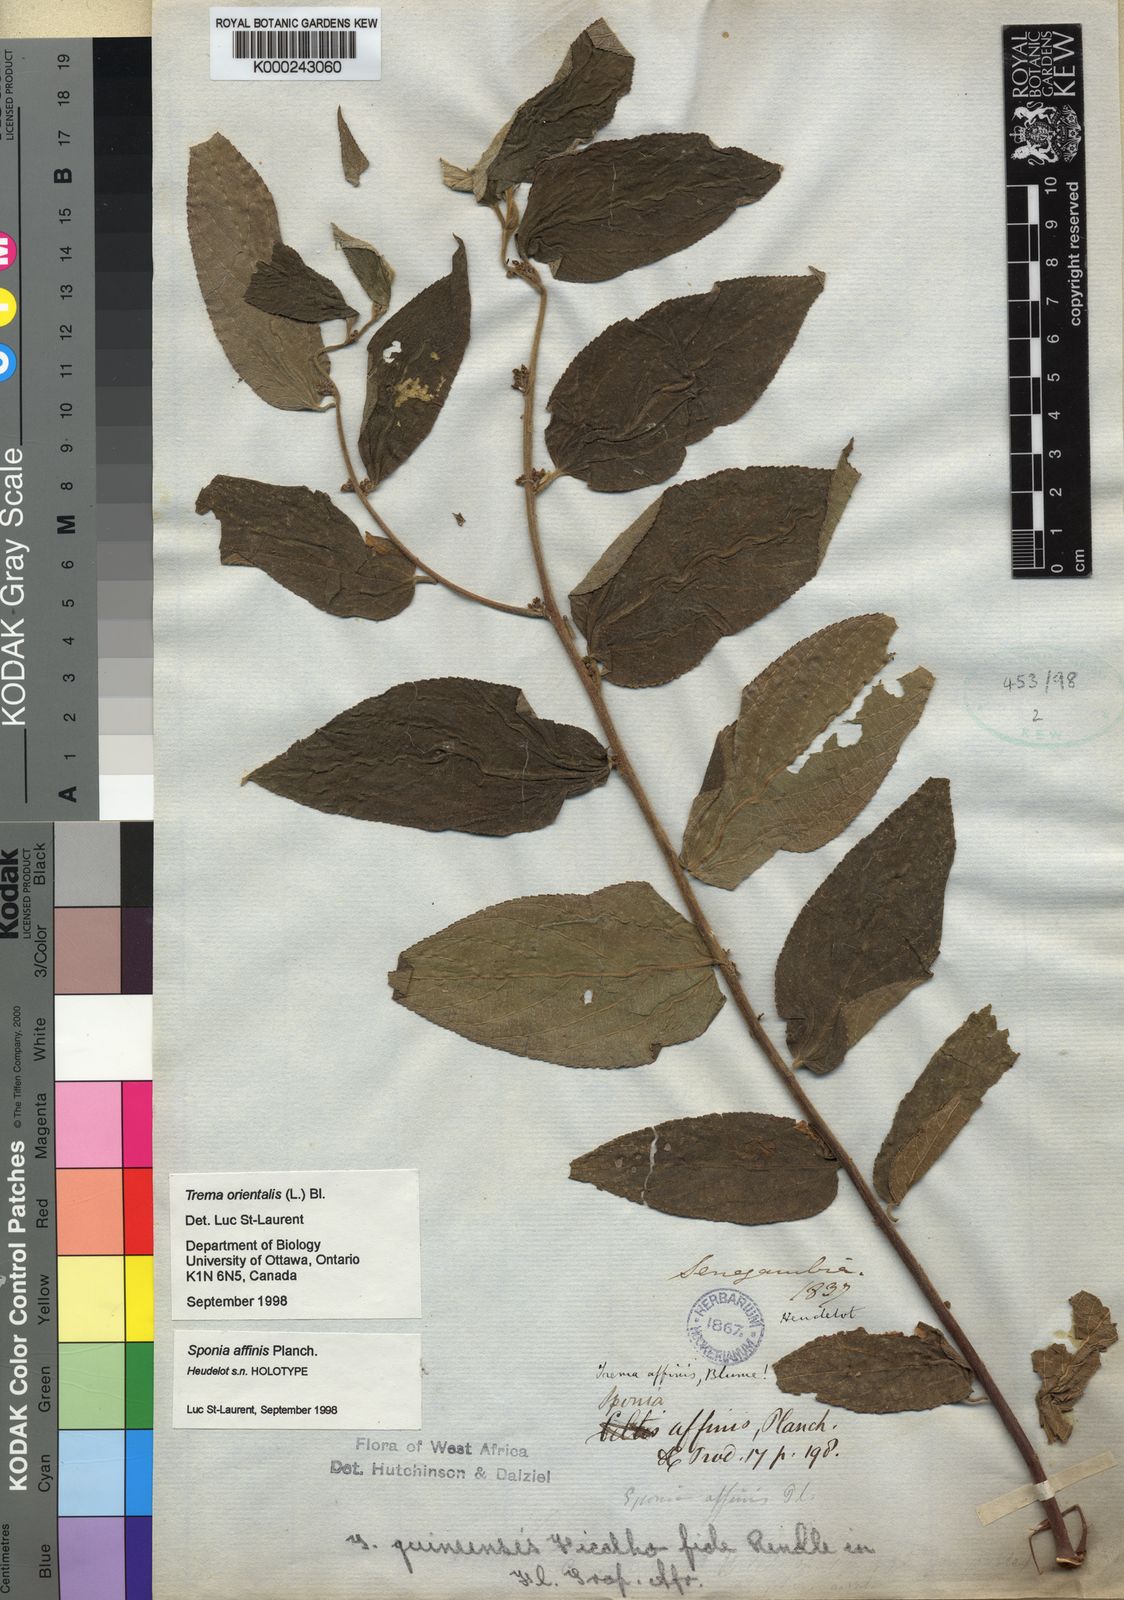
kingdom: Plantae
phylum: Tracheophyta
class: Magnoliopsida
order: Rosales
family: Cannabaceae
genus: Trema
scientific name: Trema orientale
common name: Indian charcoal tree
